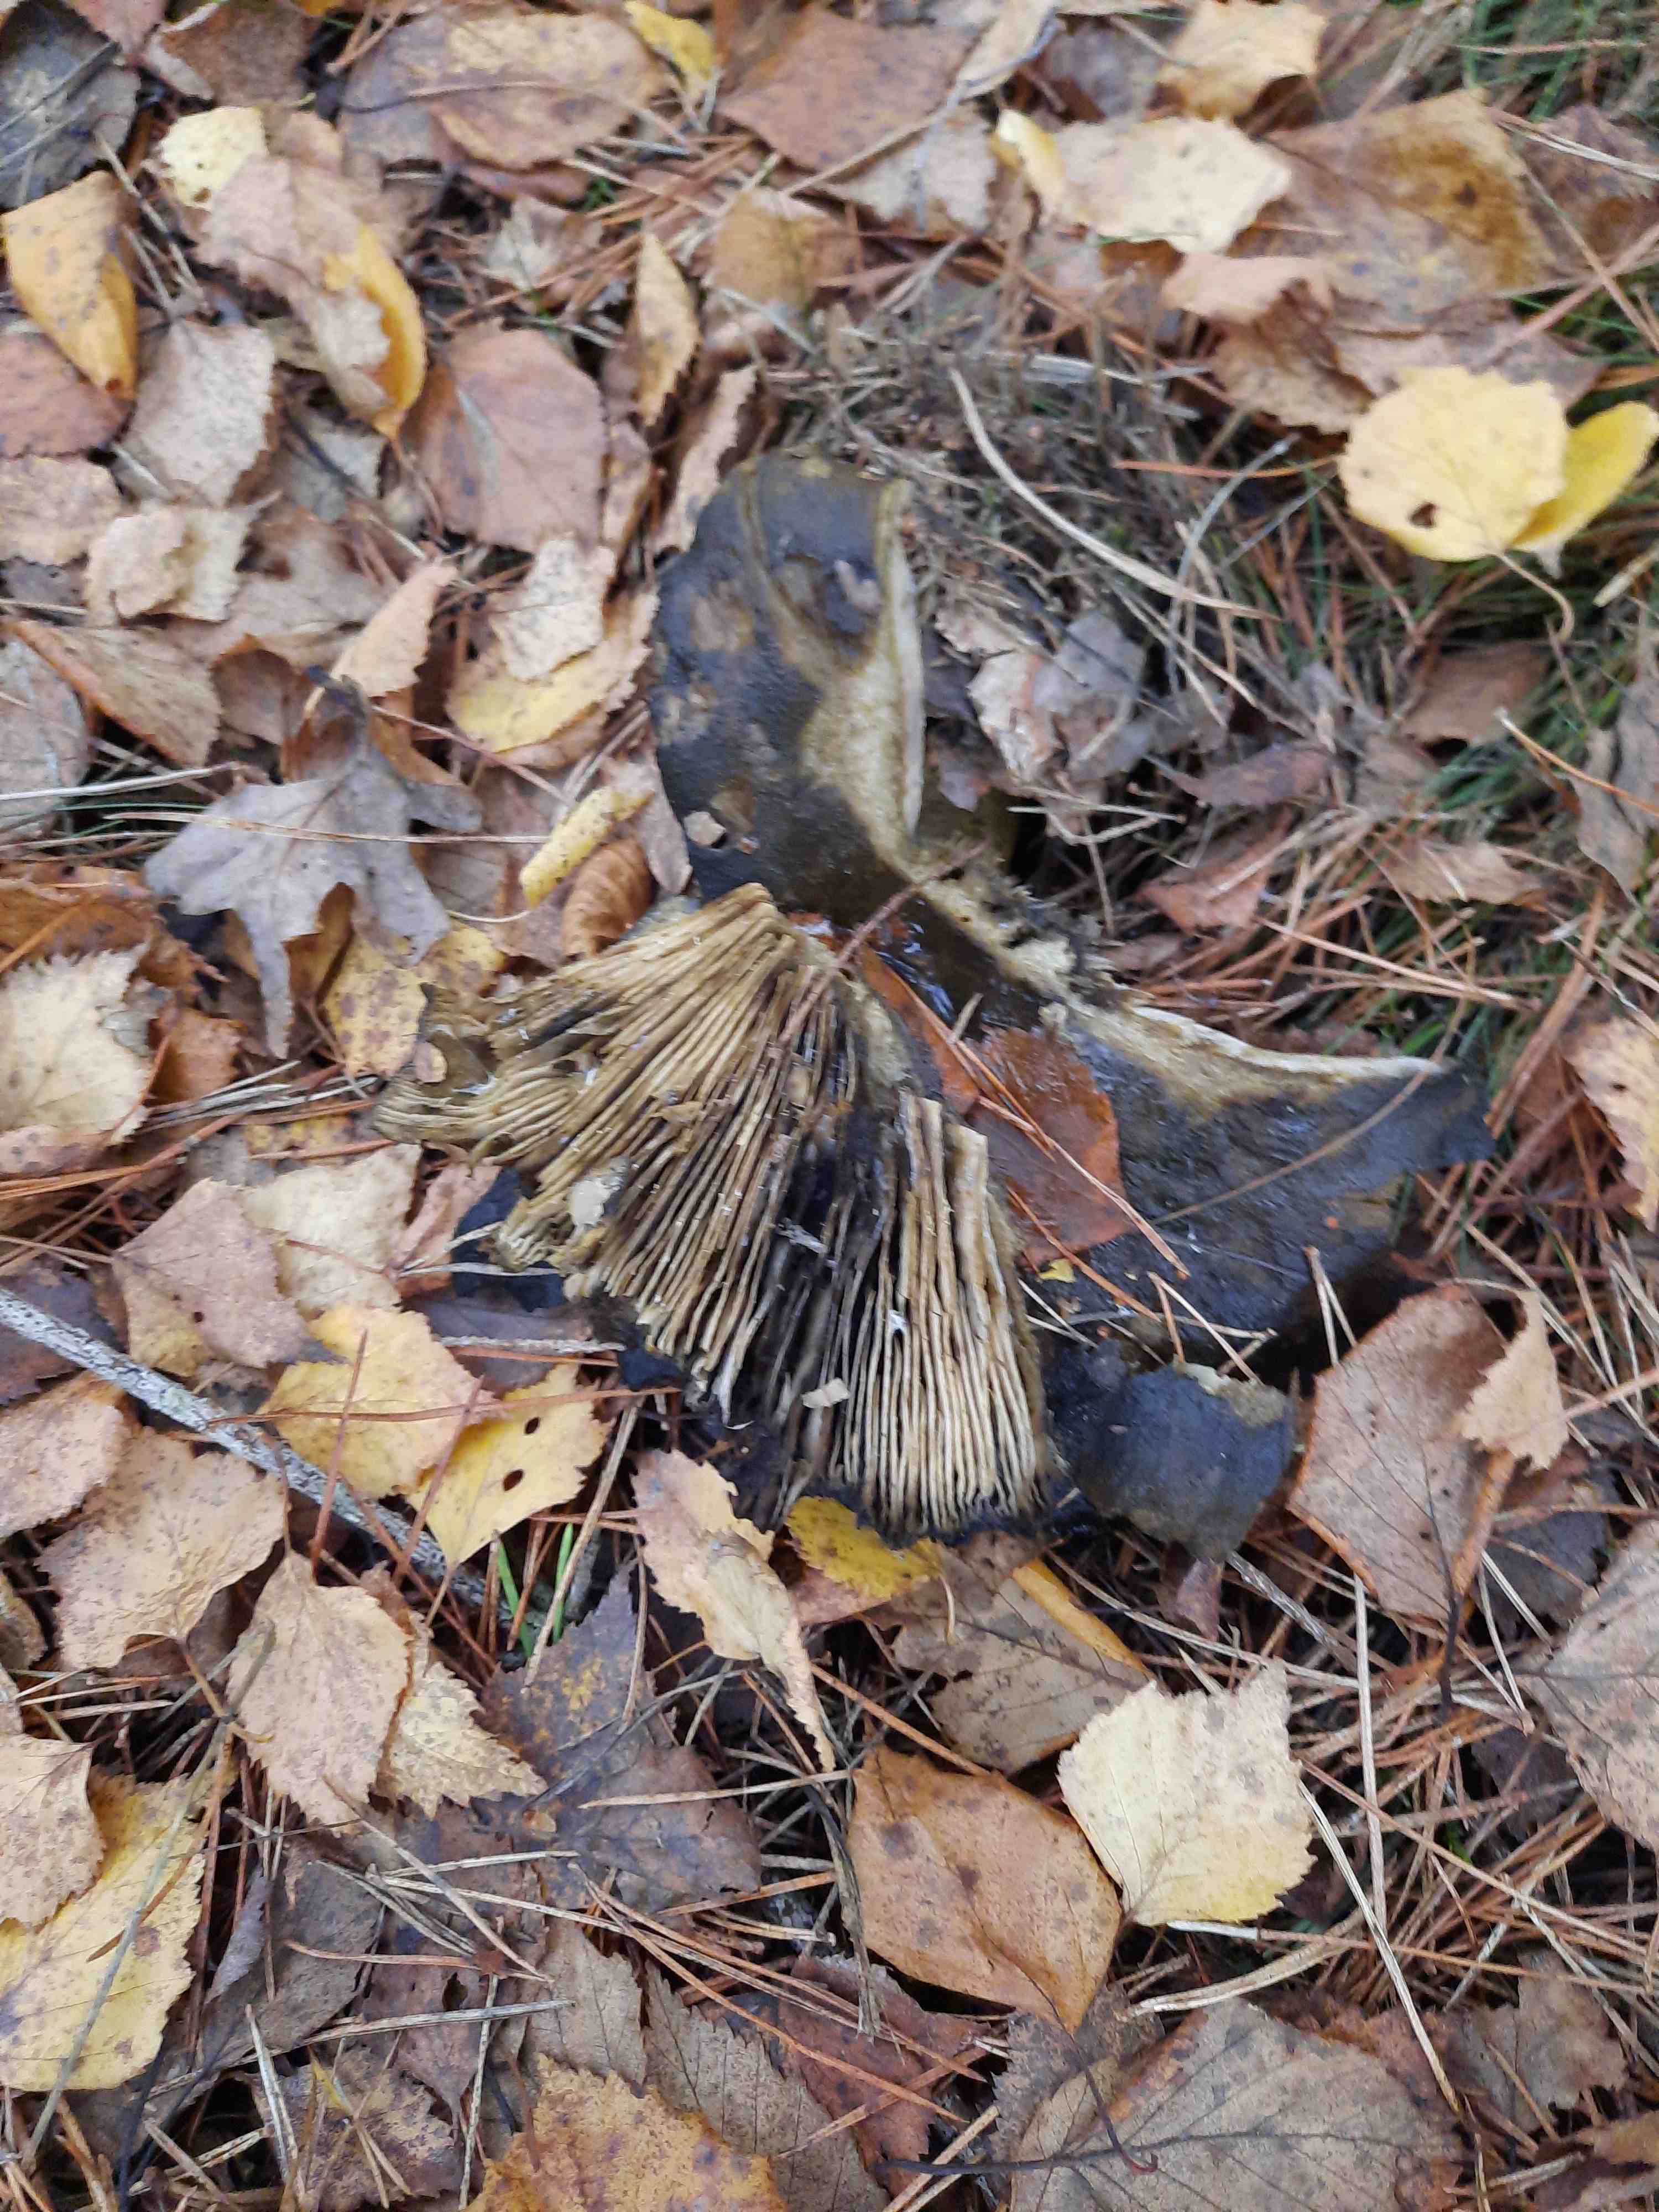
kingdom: Fungi
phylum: Basidiomycota
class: Agaricomycetes
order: Russulales
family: Russulaceae
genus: Lactarius
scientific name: Lactarius necator
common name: manddraber-mælkehat
